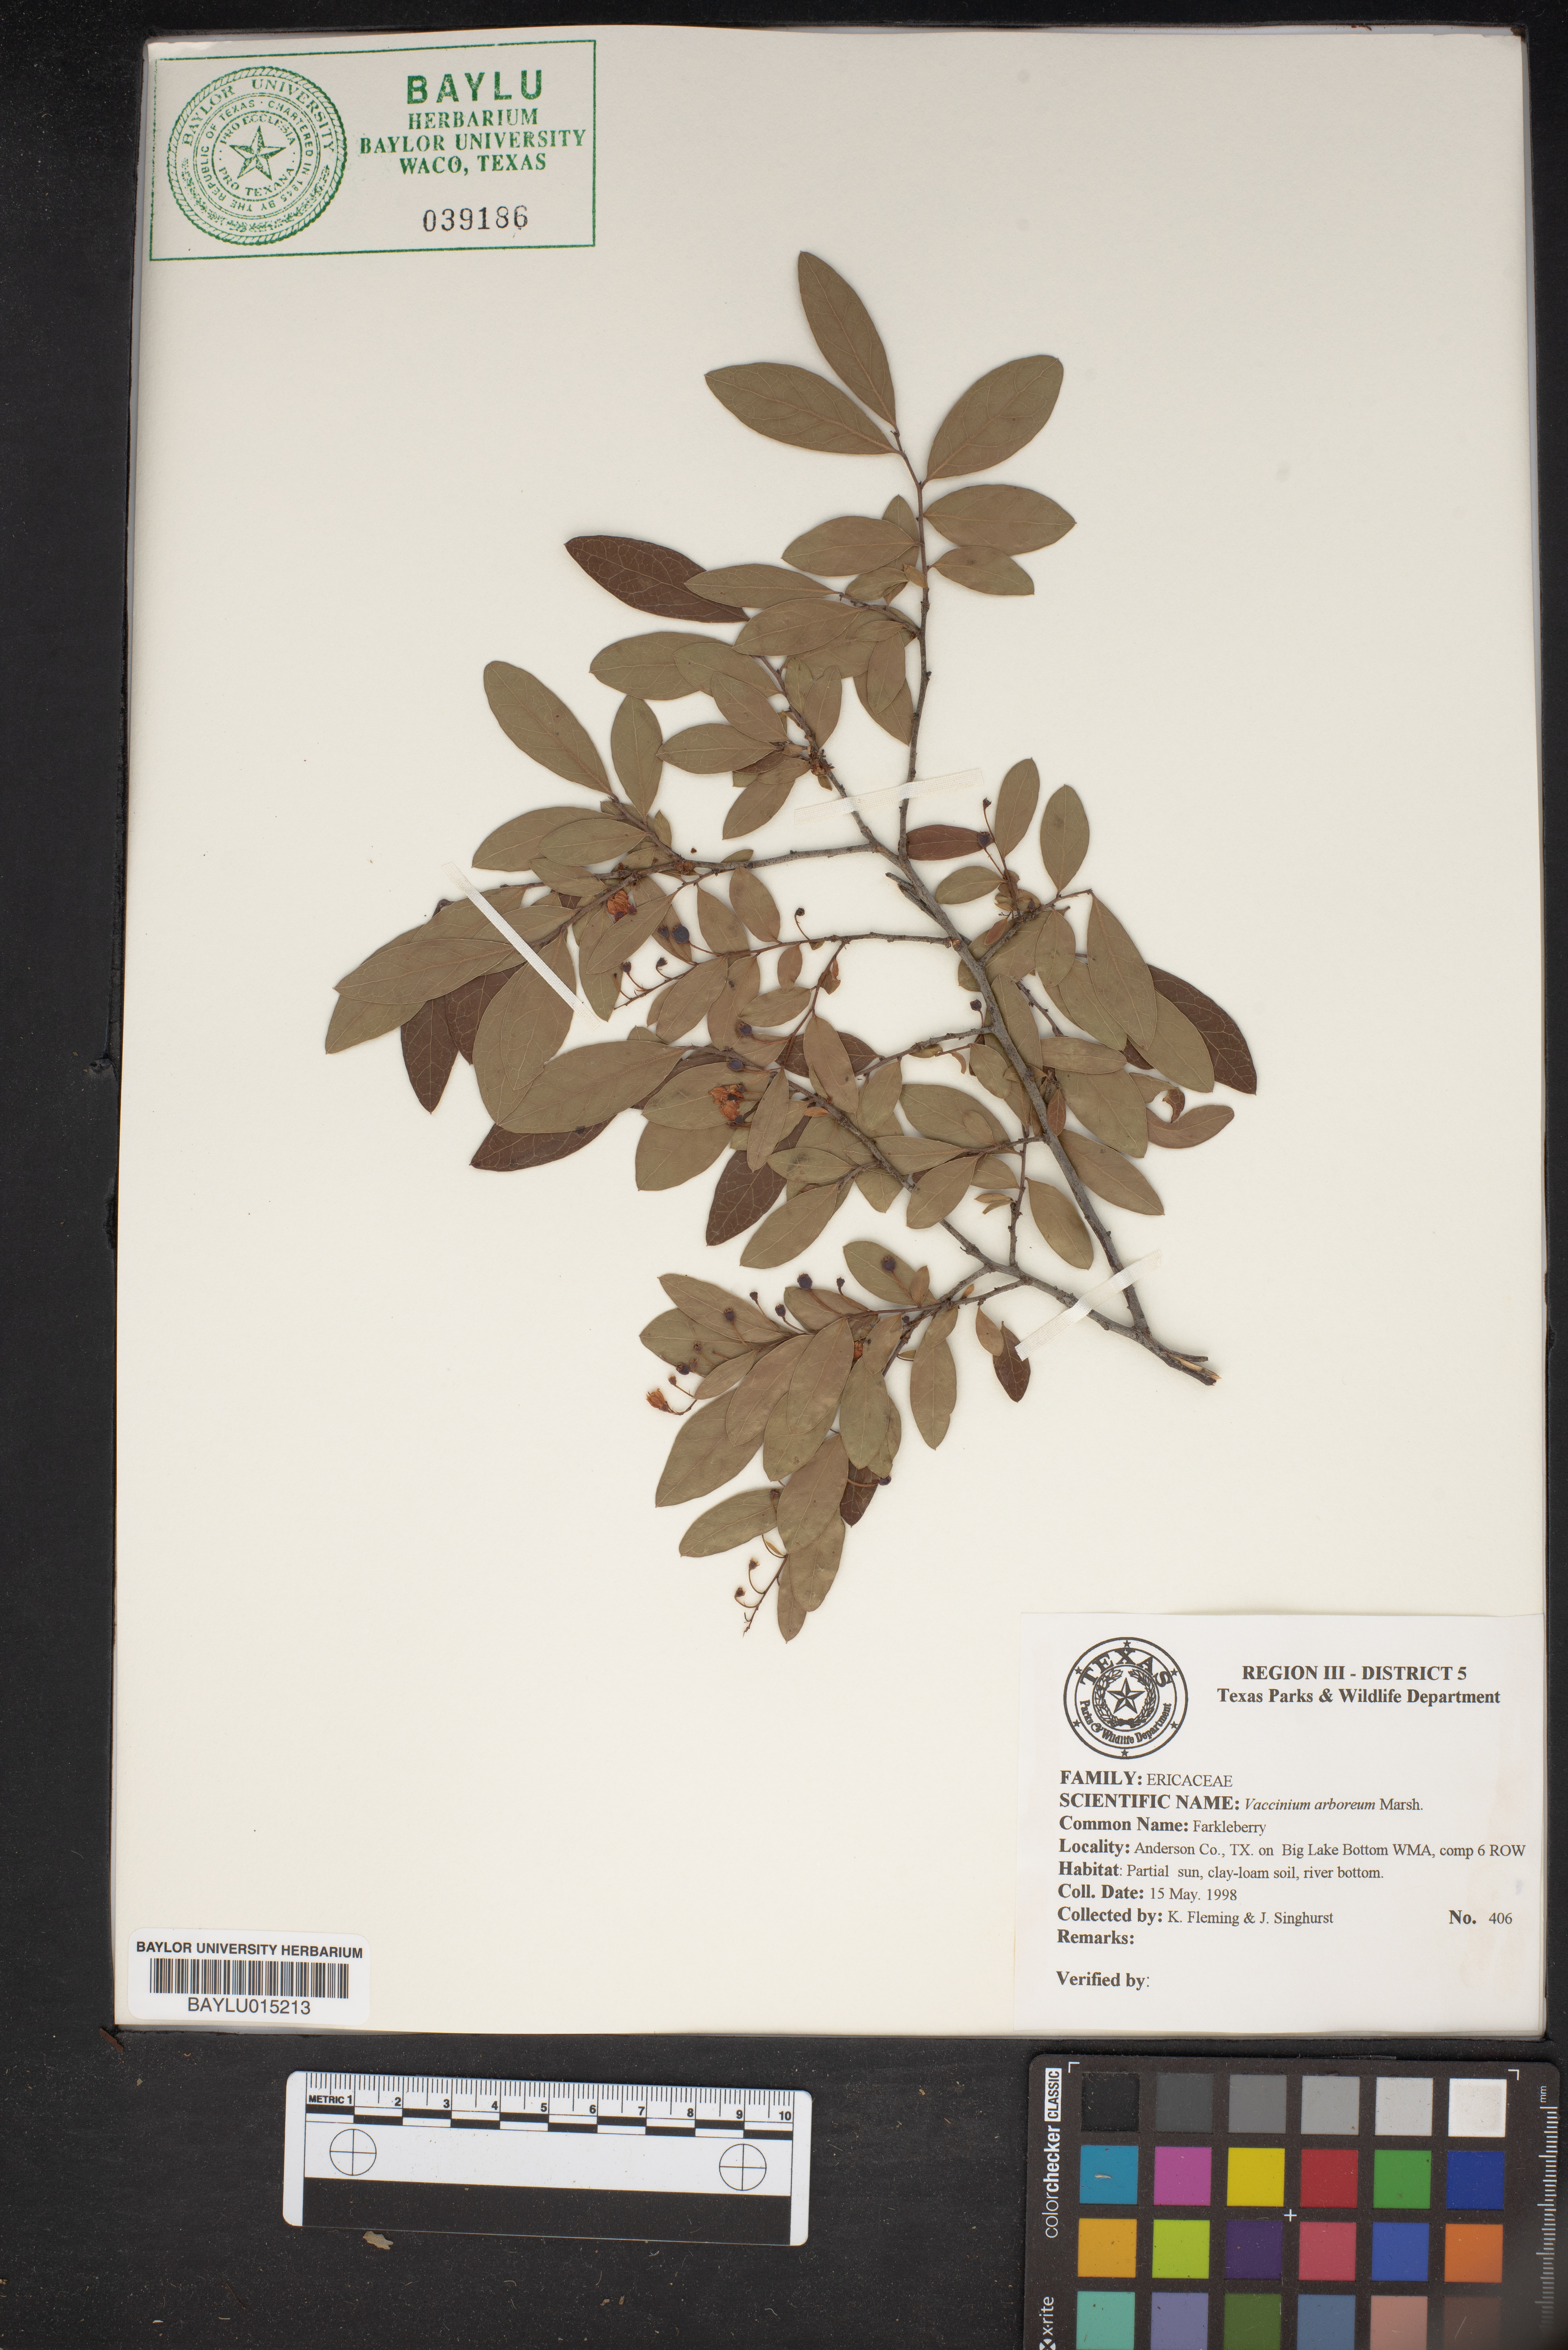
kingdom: Plantae
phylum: Tracheophyta
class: Magnoliopsida
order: Ericales
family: Ericaceae
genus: Vaccinium
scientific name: Vaccinium arboreum
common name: Farkleberry
